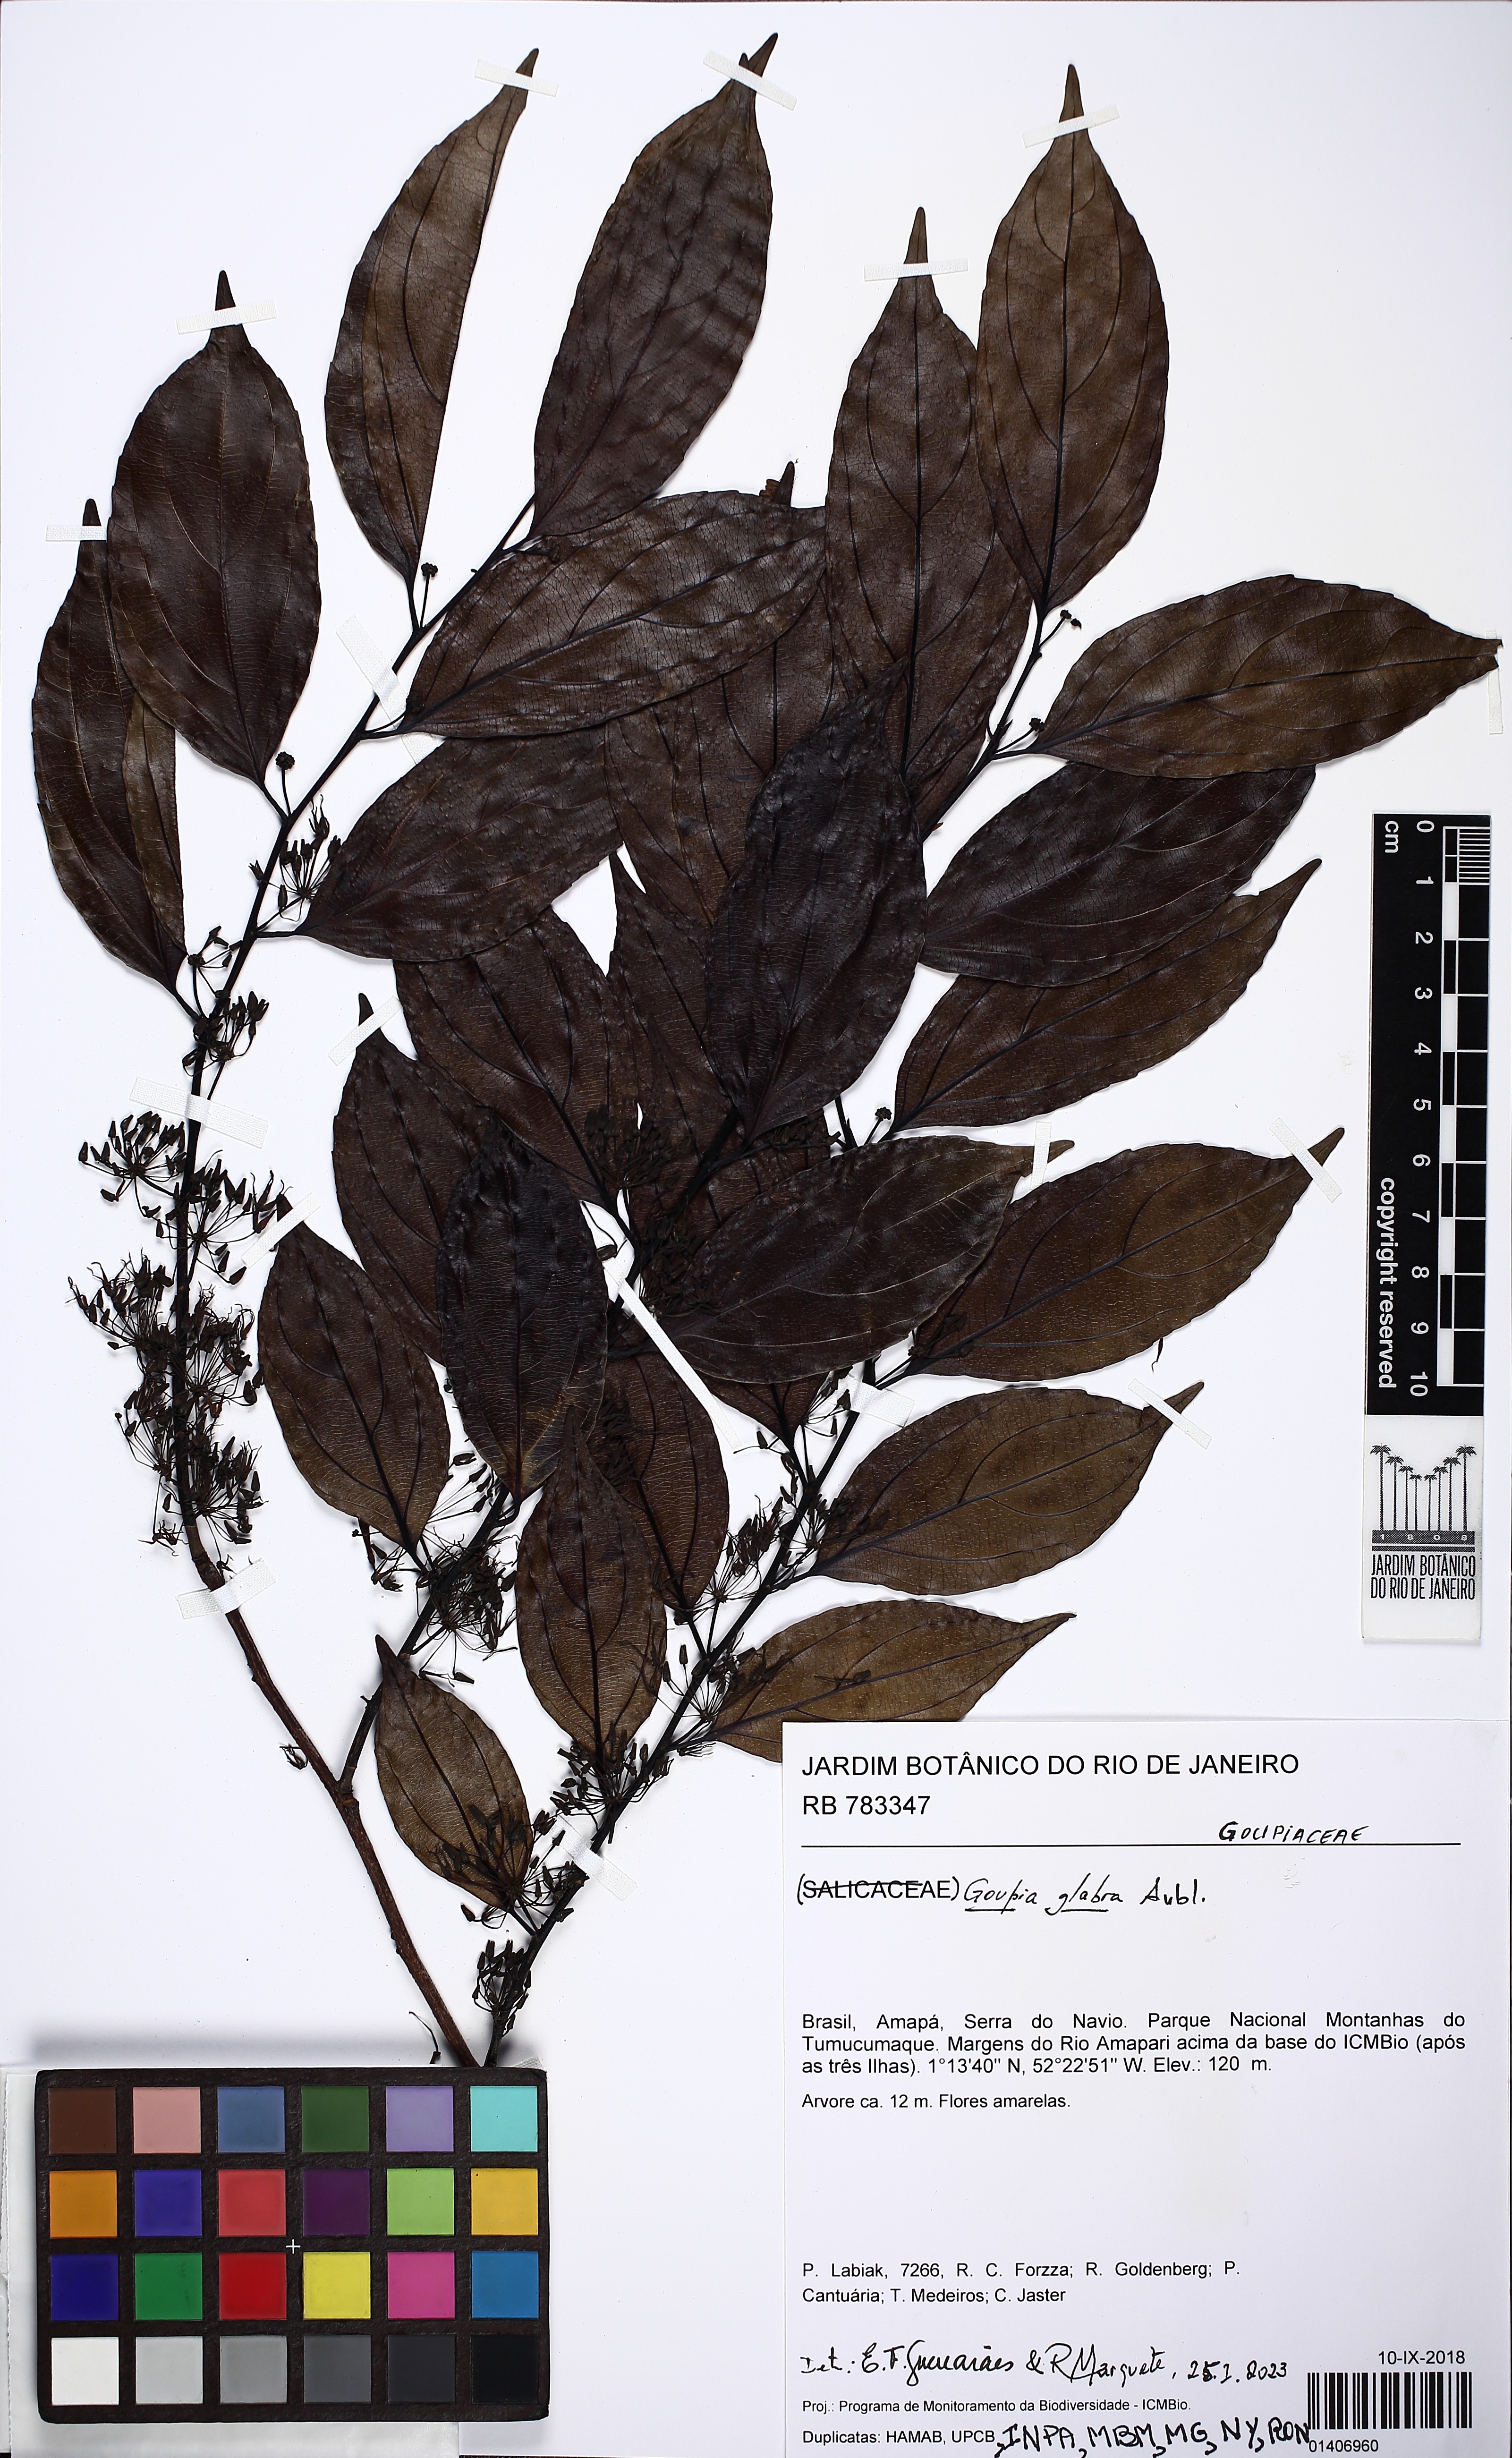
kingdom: Plantae
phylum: Tracheophyta
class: Magnoliopsida
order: Malpighiales
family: Goupiaceae
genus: Goupia
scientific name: Goupia glabra
